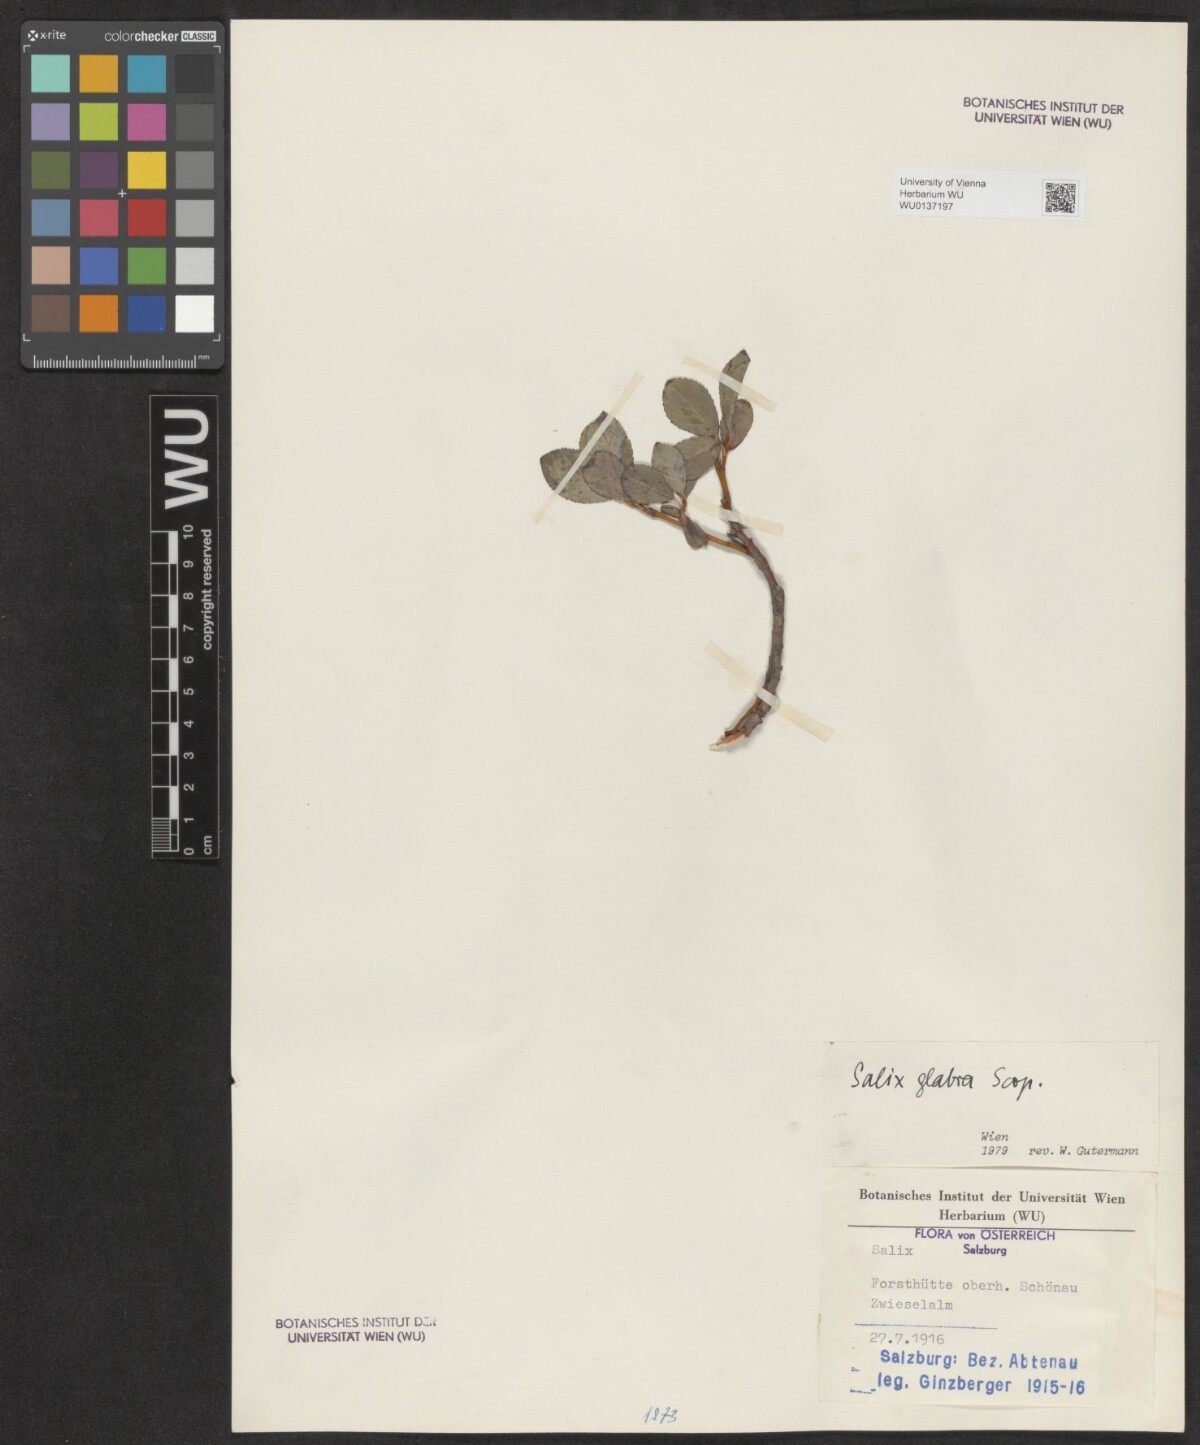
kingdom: Plantae
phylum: Tracheophyta
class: Magnoliopsida
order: Malpighiales
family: Salicaceae
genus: Salix
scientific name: Salix glabra
